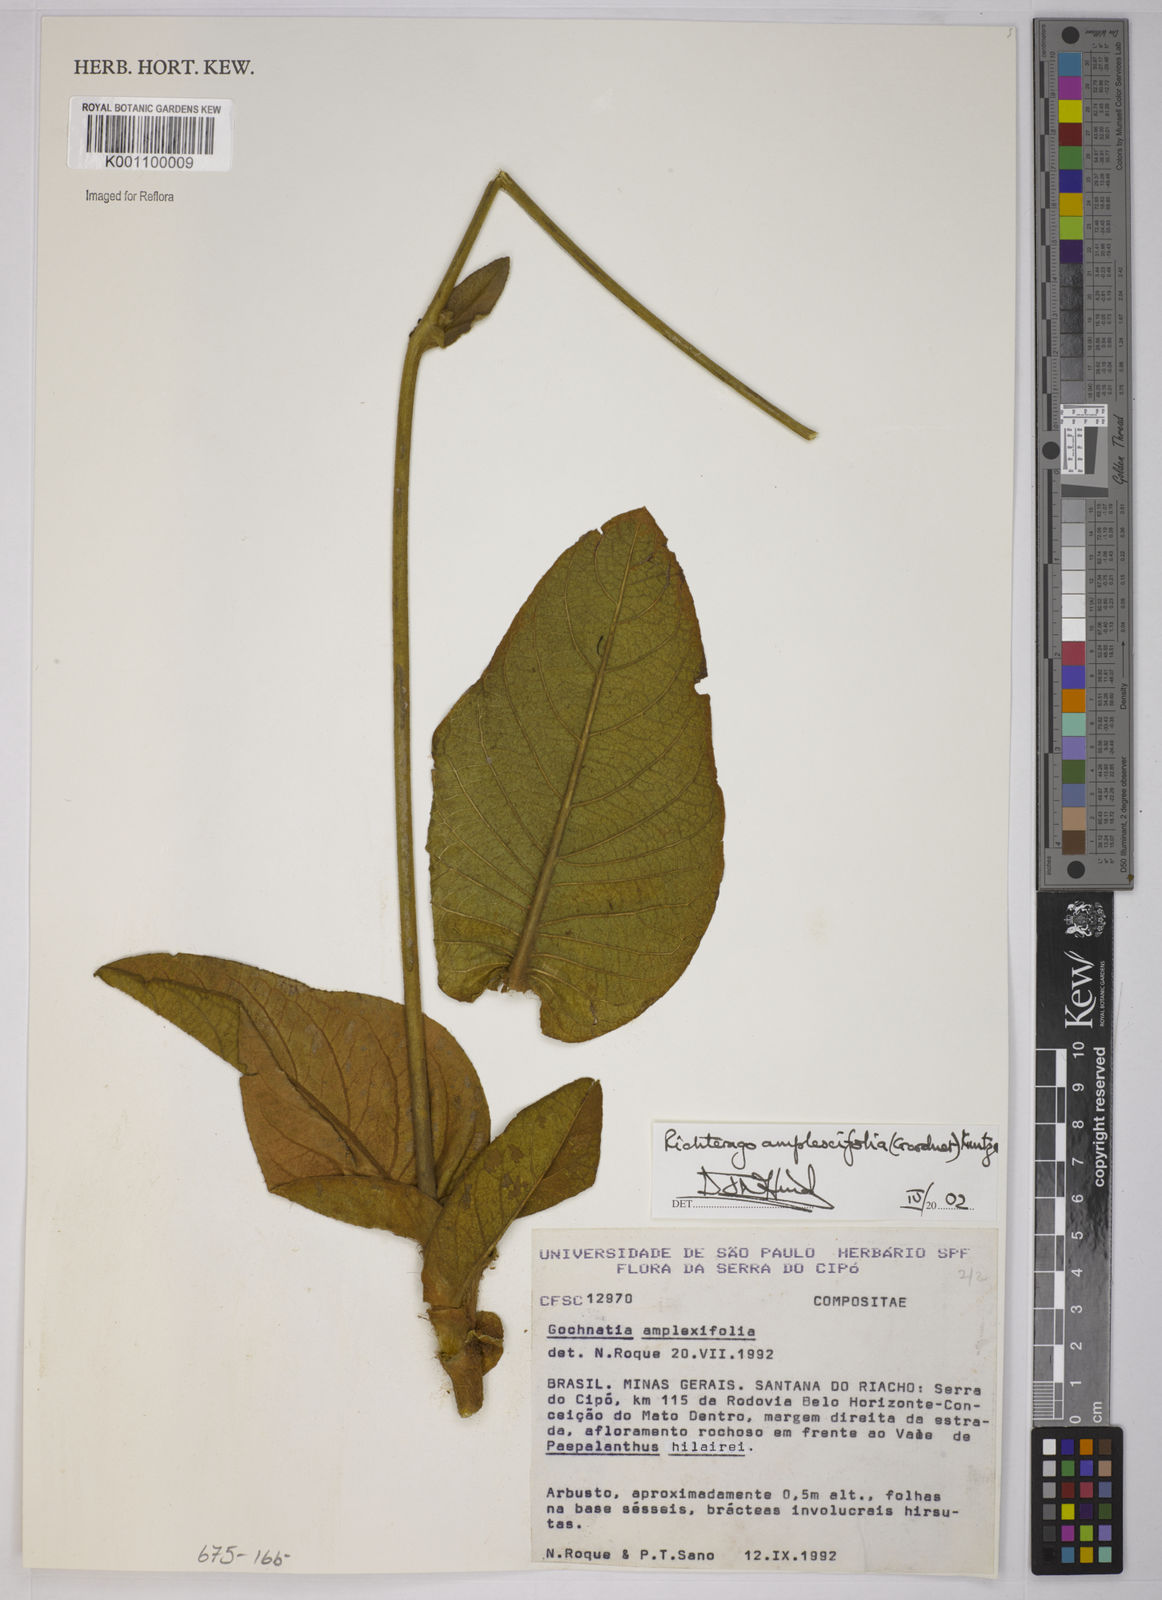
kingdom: Plantae
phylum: Tracheophyta
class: Magnoliopsida
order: Asterales
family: Asteraceae
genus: Richterago
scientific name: Richterago amplexifolia
